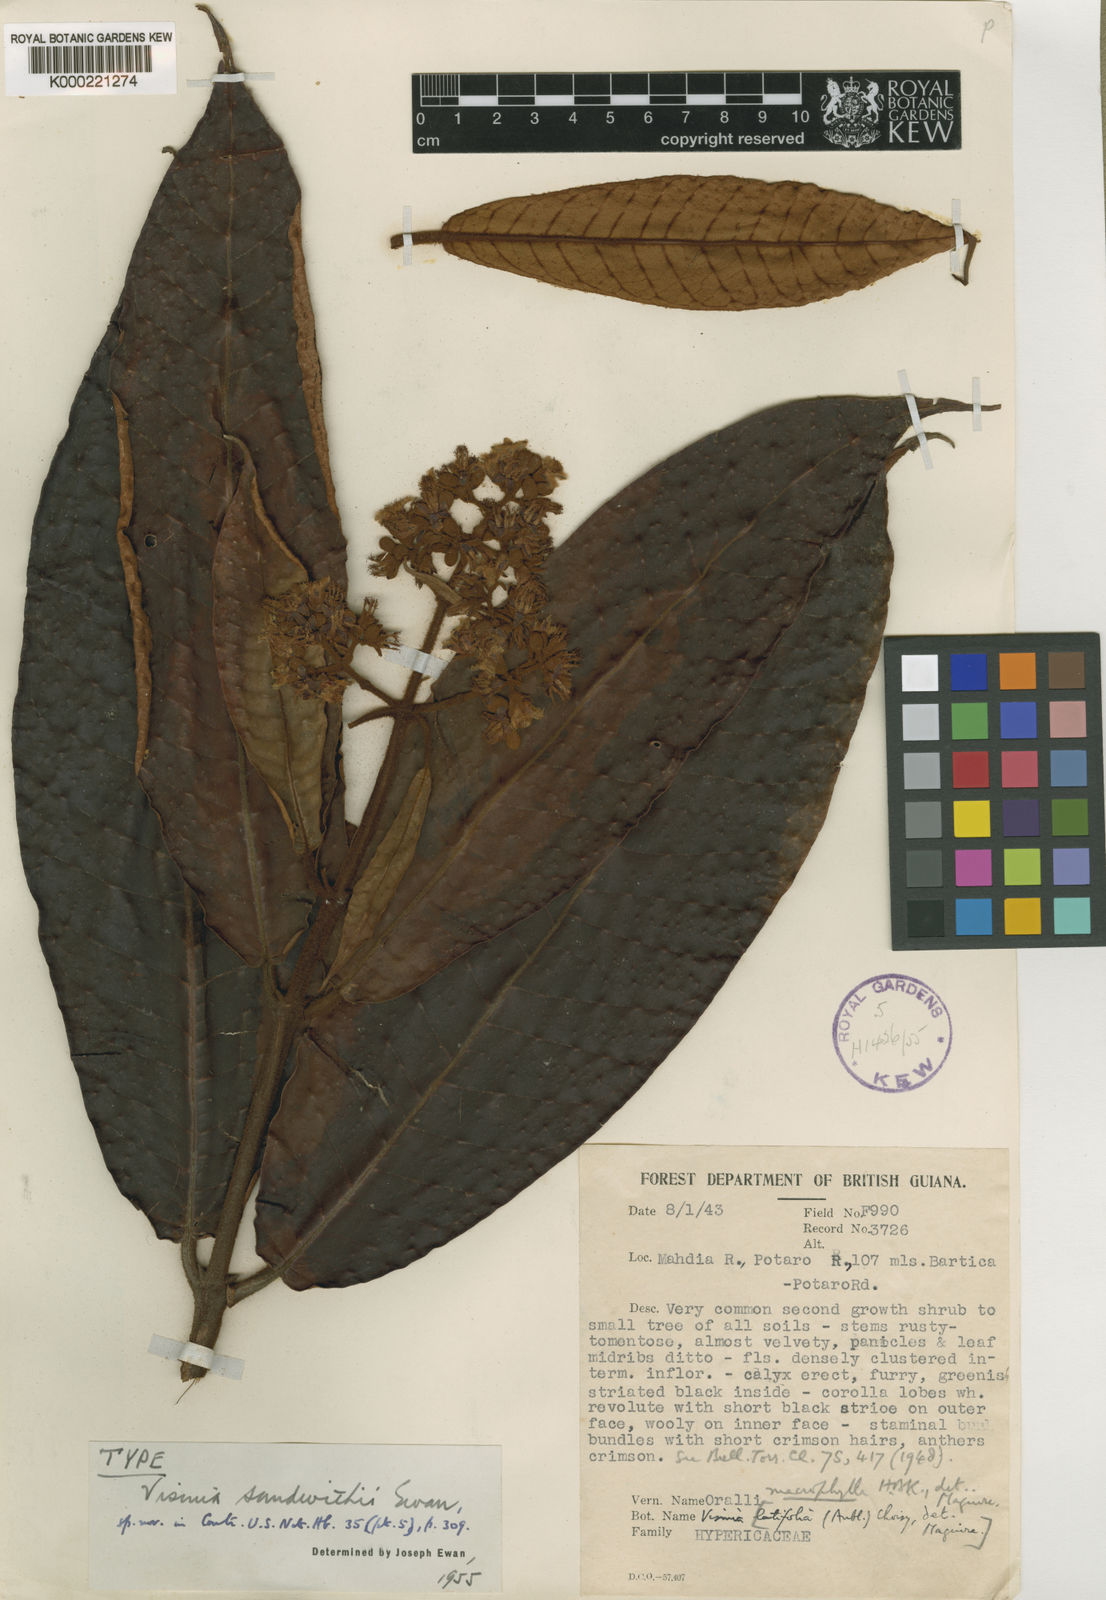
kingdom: Plantae
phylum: Tracheophyta
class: Magnoliopsida
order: Malpighiales
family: Hypericaceae
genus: Vismia
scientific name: Vismia sandwithii
